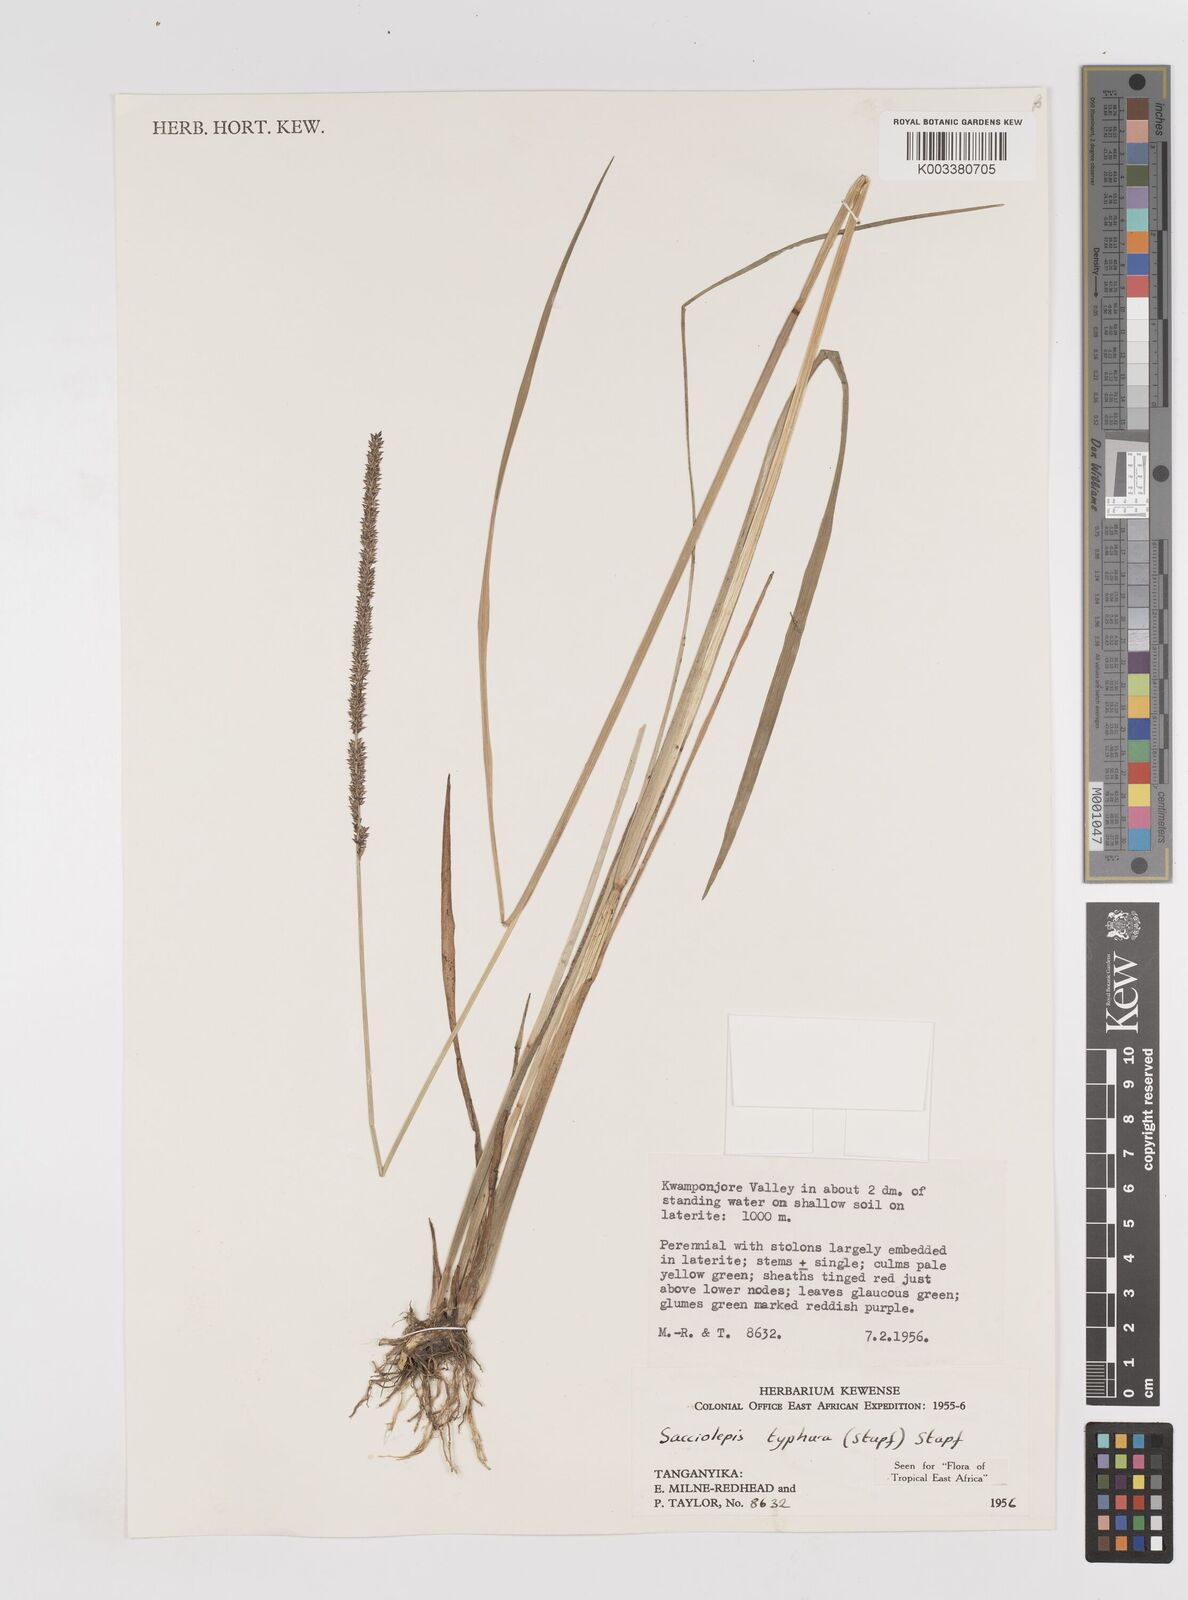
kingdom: Plantae
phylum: Tracheophyta
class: Liliopsida
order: Poales
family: Poaceae
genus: Sacciolepis
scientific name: Sacciolepis typhura
